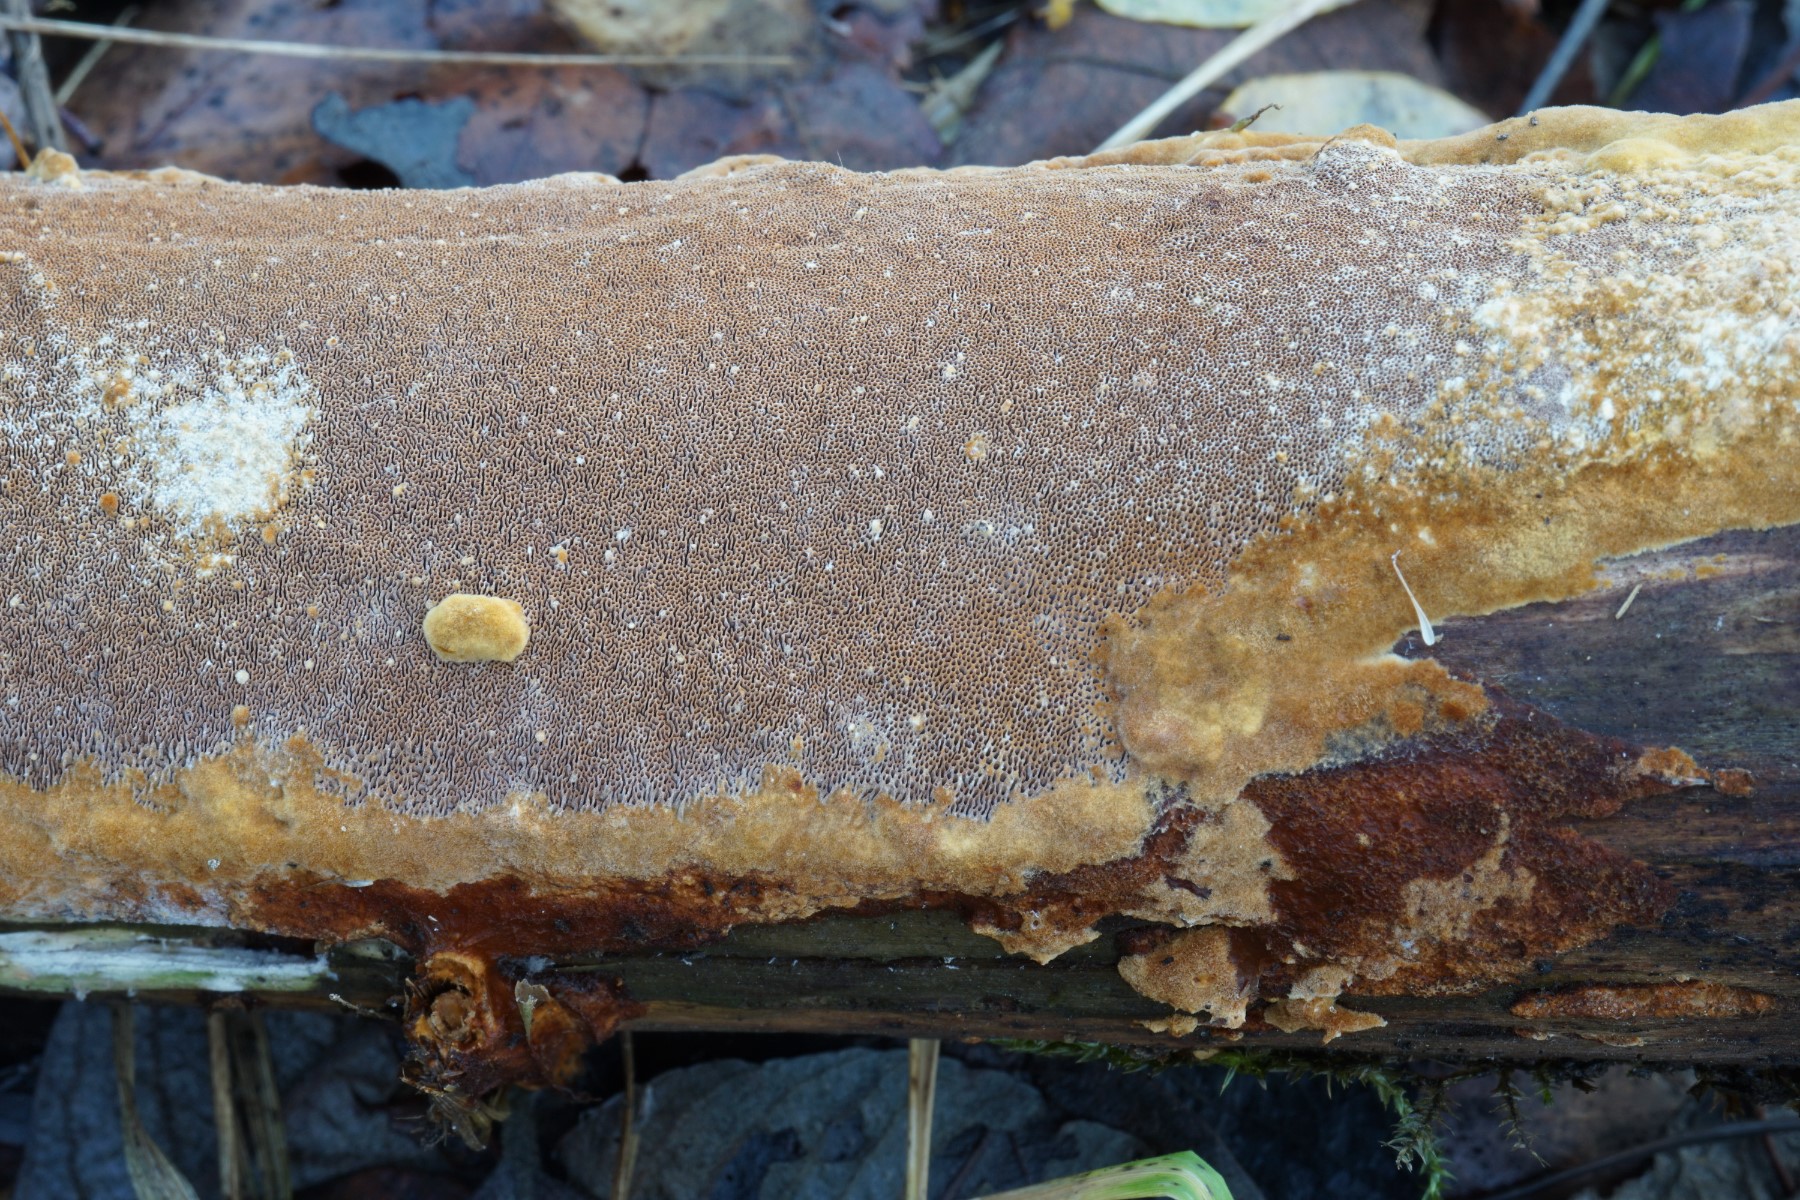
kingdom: Fungi
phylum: Basidiomycota
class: Agaricomycetes
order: Hymenochaetales
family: Hymenochaetaceae
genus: Fuscoporia
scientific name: Fuscoporia ferruginosa
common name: rustbrun ildporesvamp
